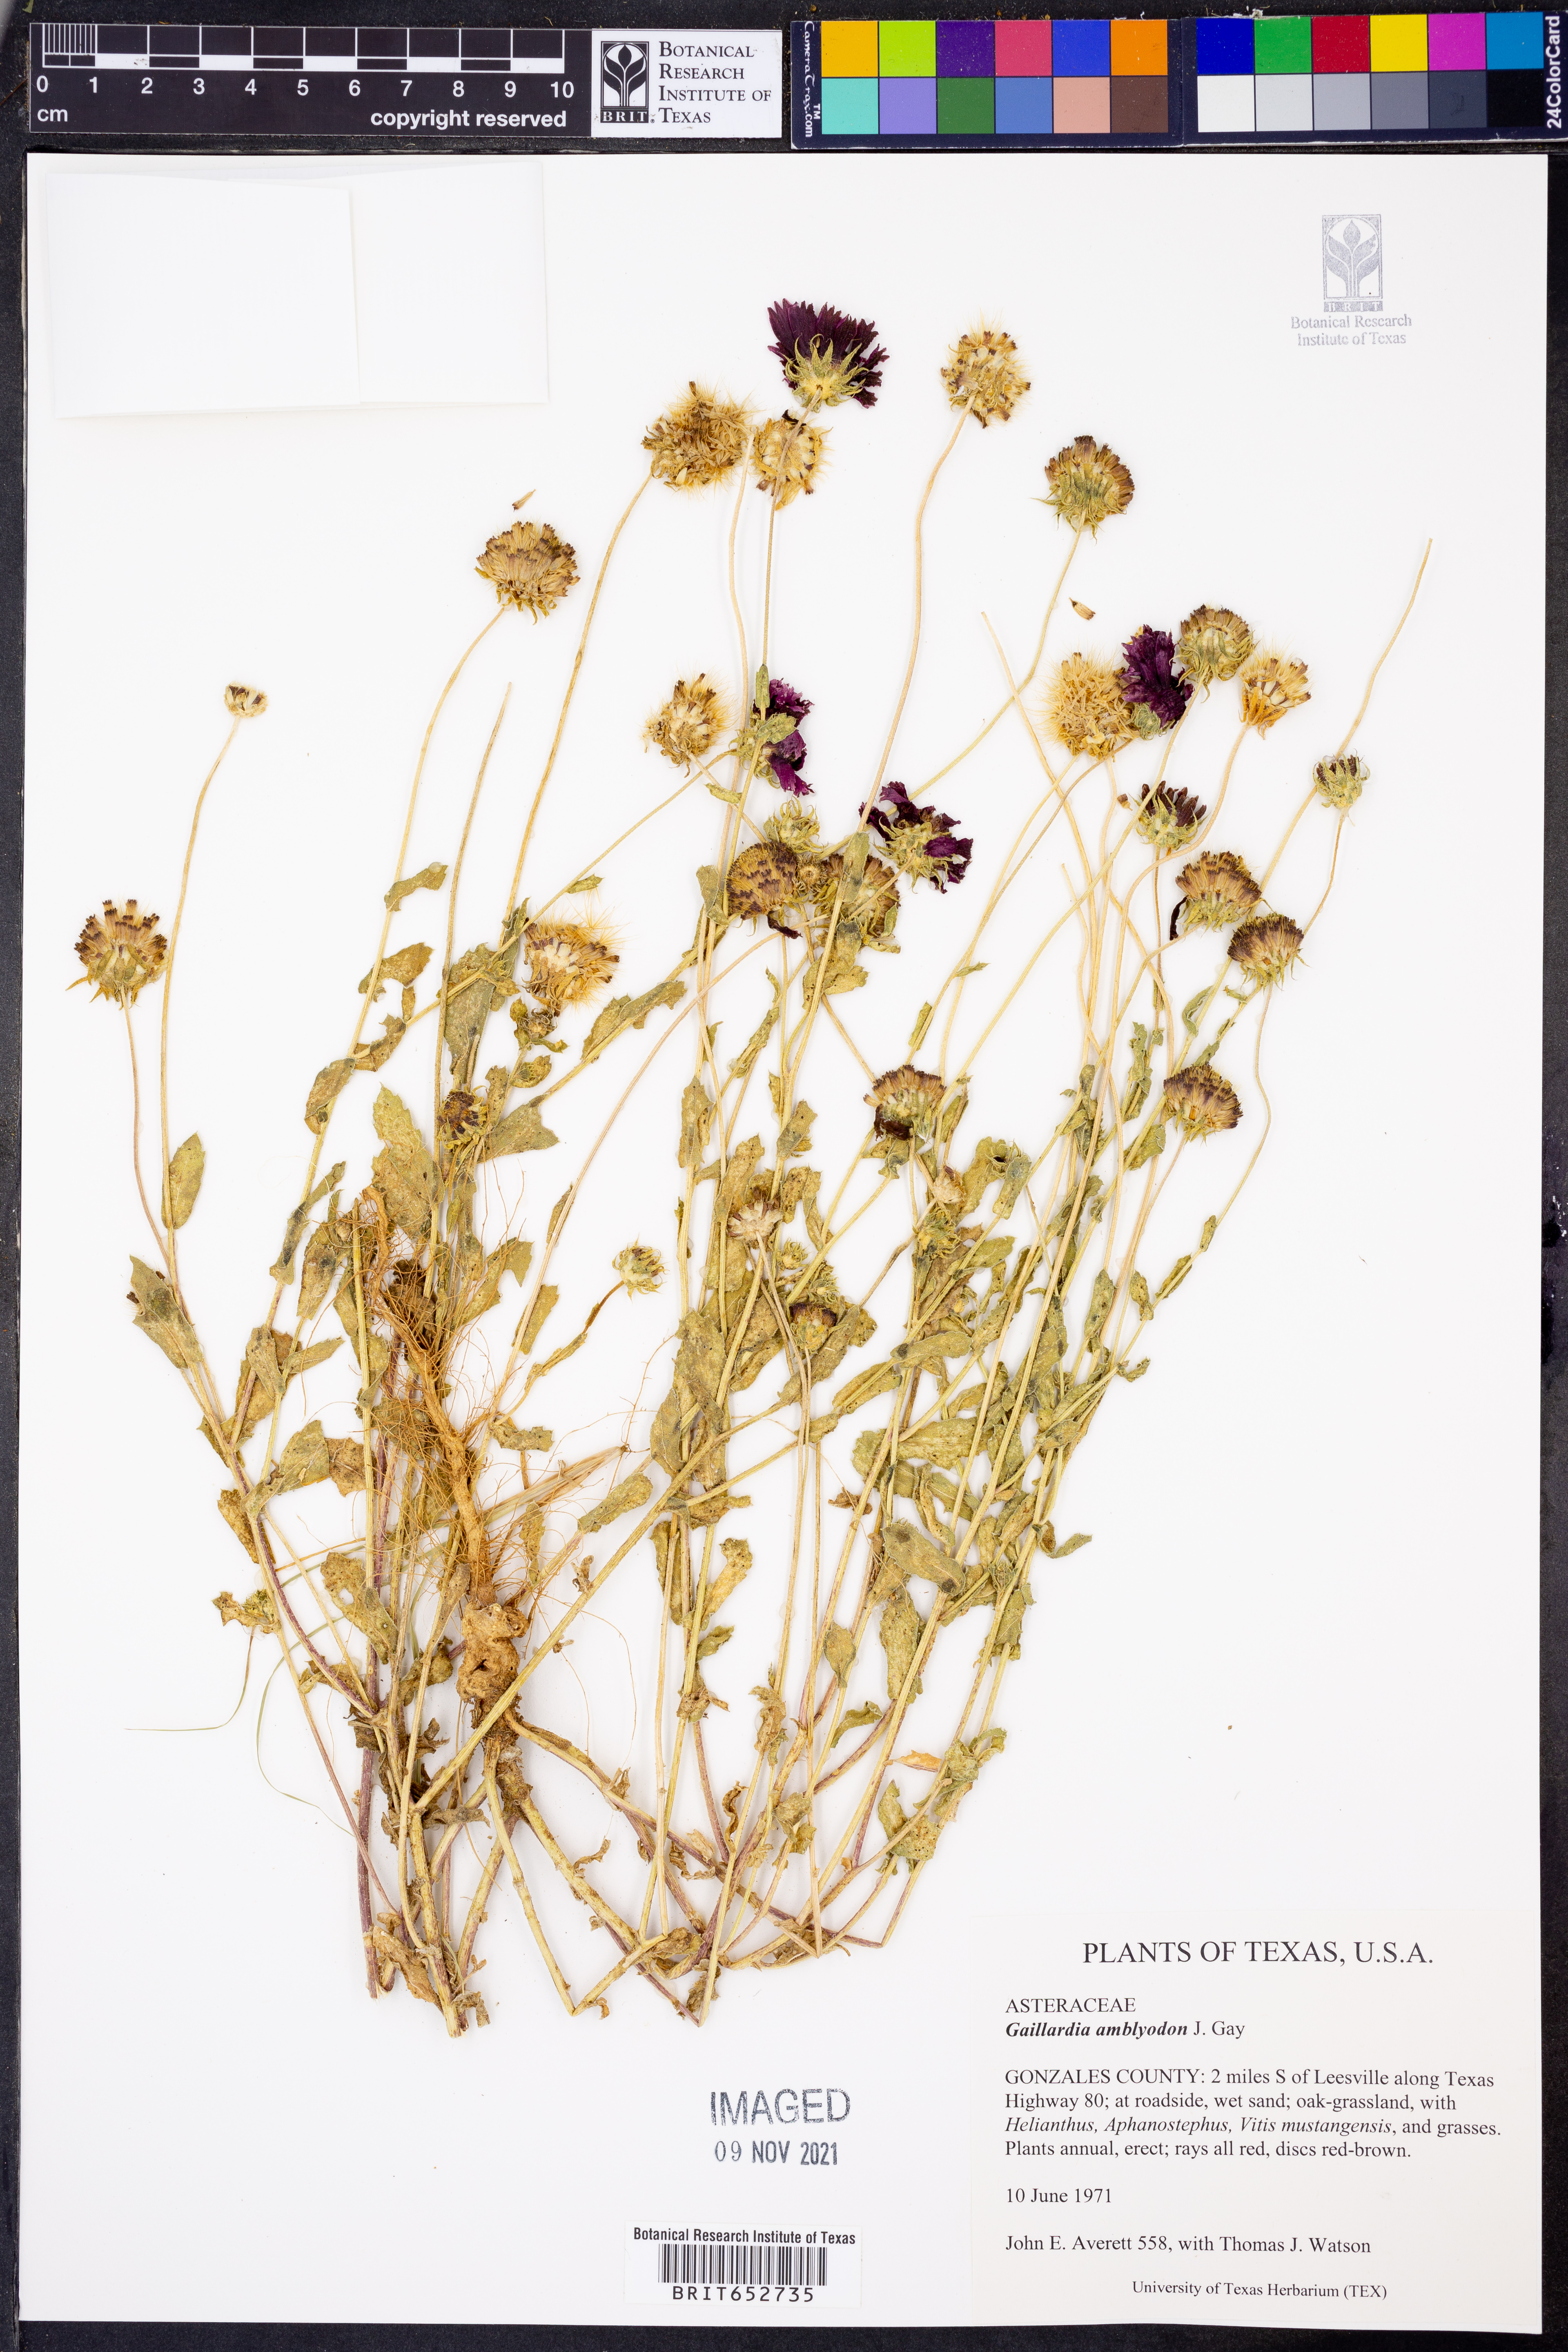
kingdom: Plantae
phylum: Tracheophyta
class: Magnoliopsida
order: Asterales
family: Asteraceae
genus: Gaillardia
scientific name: Gaillardia amblyodon
